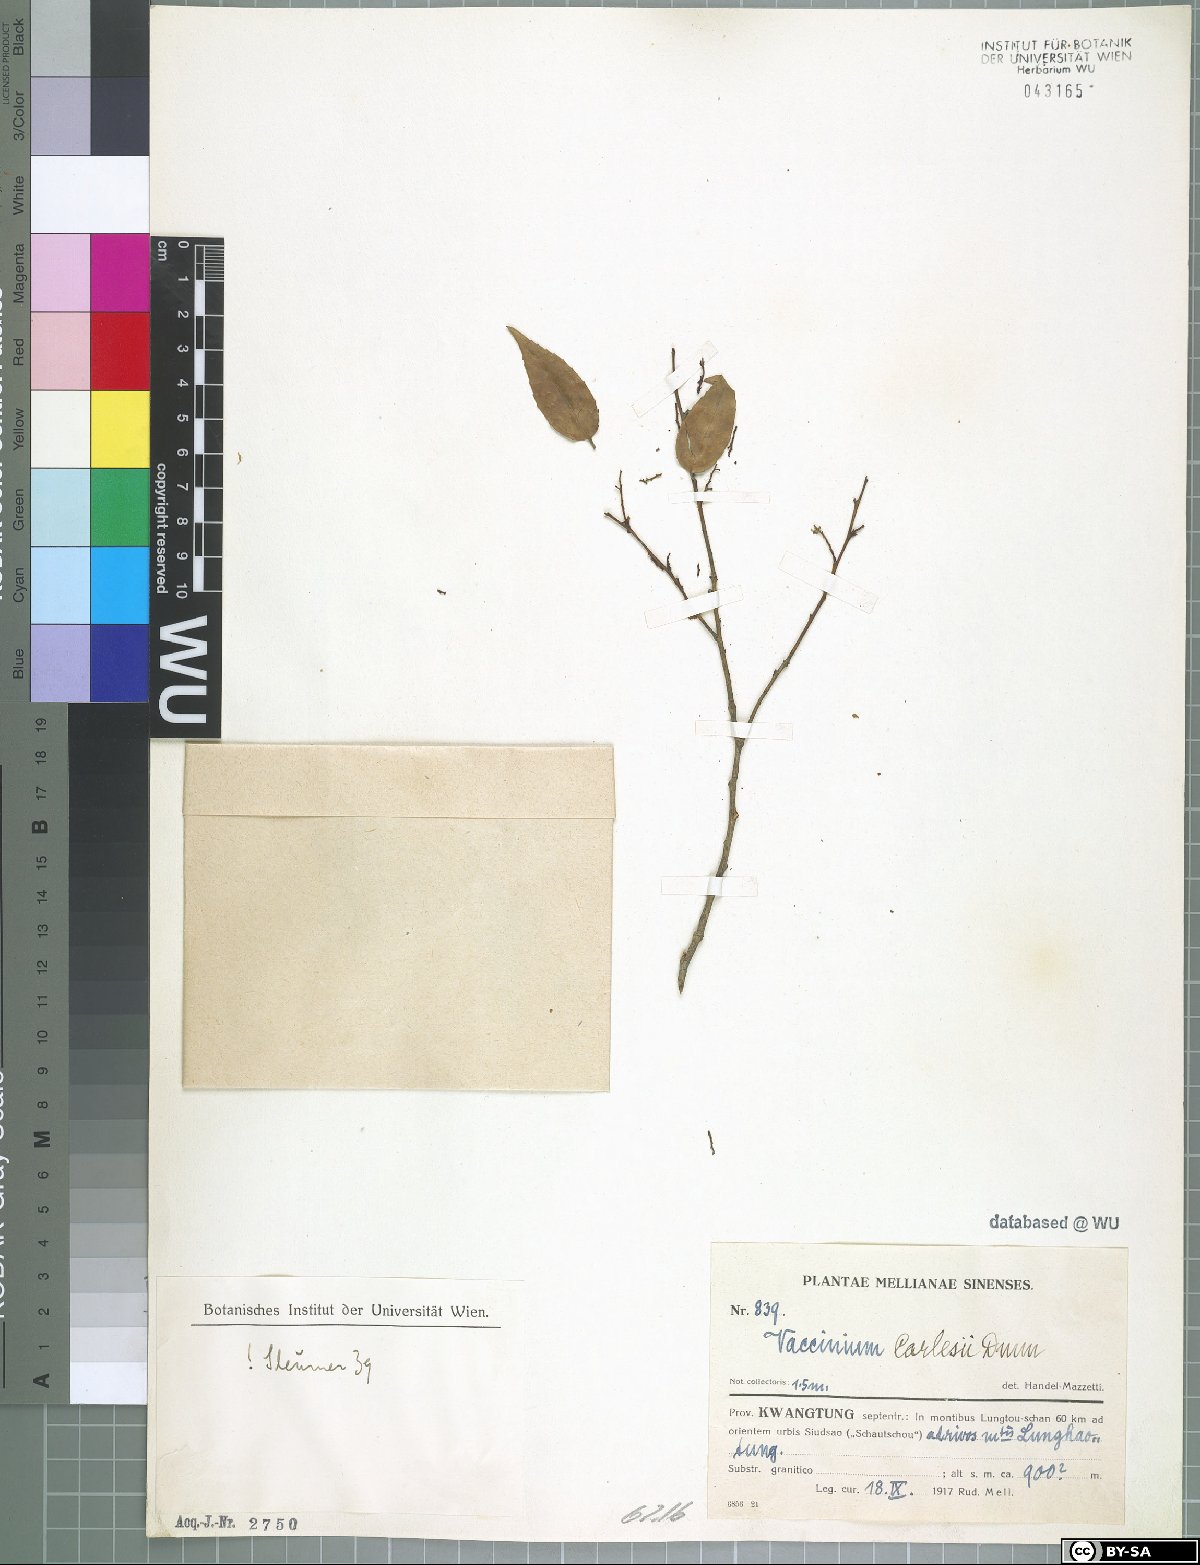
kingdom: Plantae
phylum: Tracheophyta
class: Magnoliopsida
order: Ericales
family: Ericaceae
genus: Vaccinium
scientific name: Vaccinium carlesii
